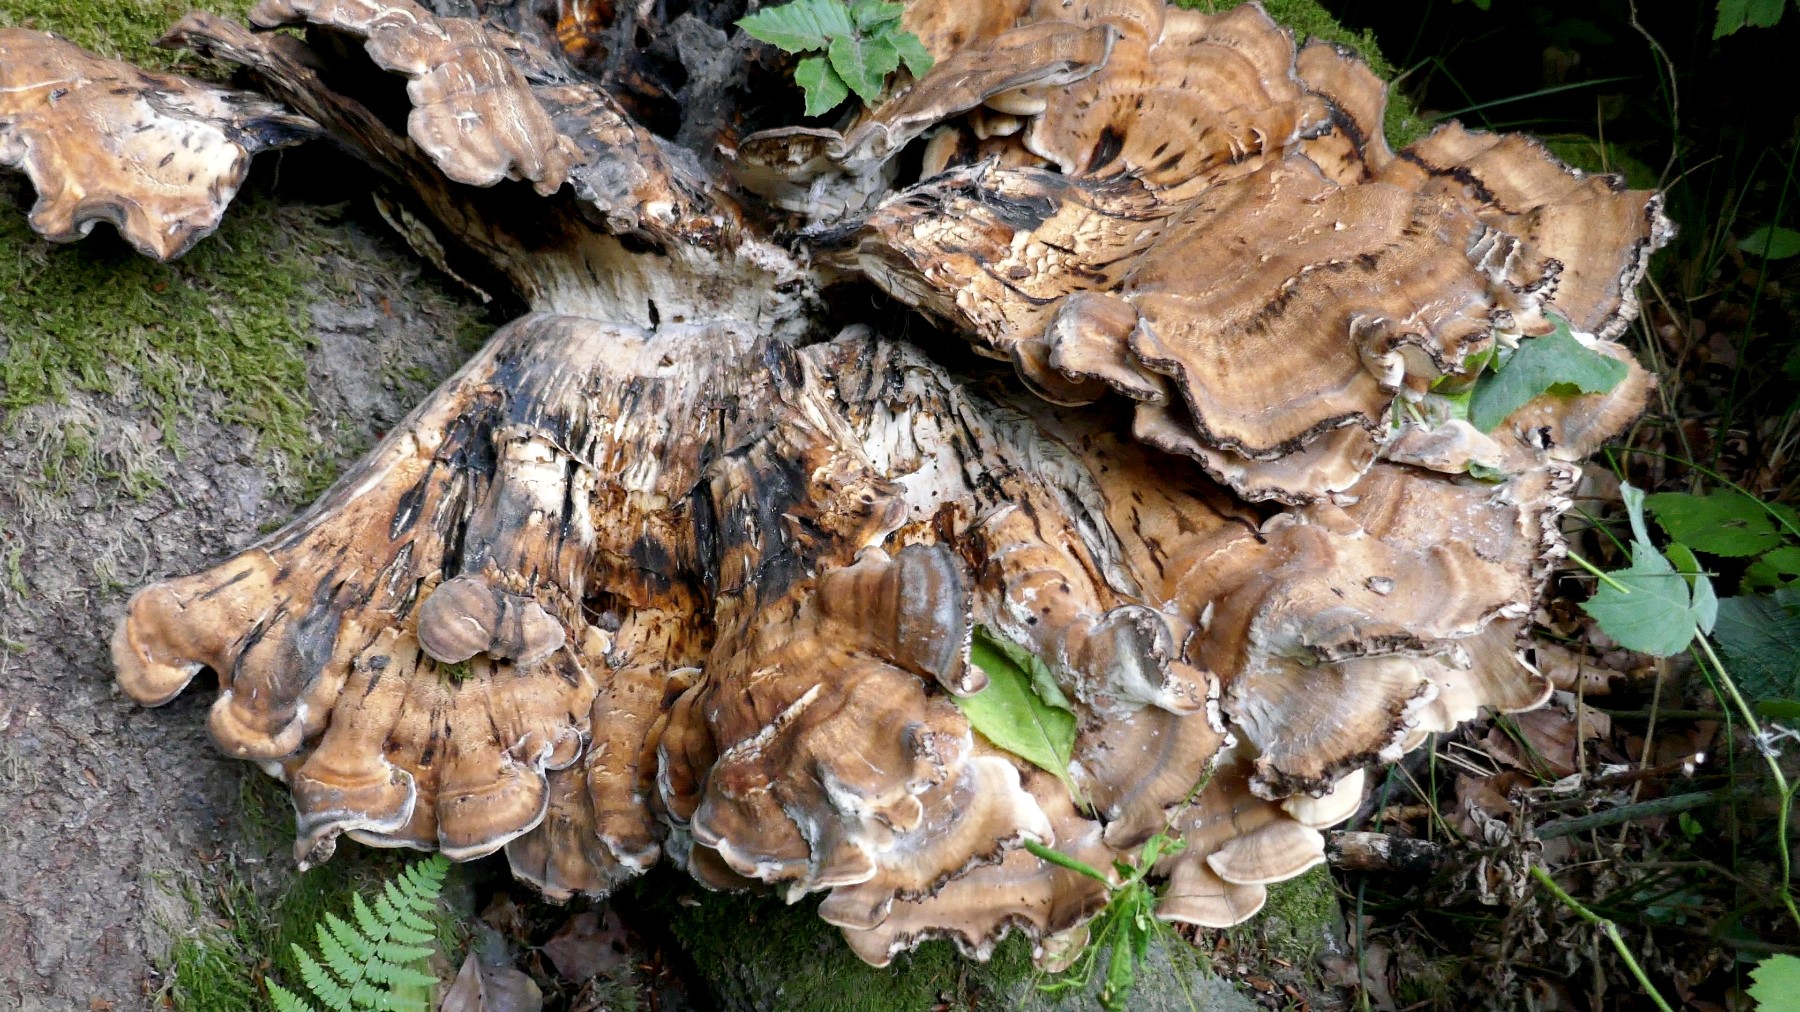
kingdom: Fungi
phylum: Basidiomycota
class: Agaricomycetes
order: Polyporales
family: Meripilaceae
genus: Meripilus
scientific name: Meripilus giganteus
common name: kæmpeporesvamp
